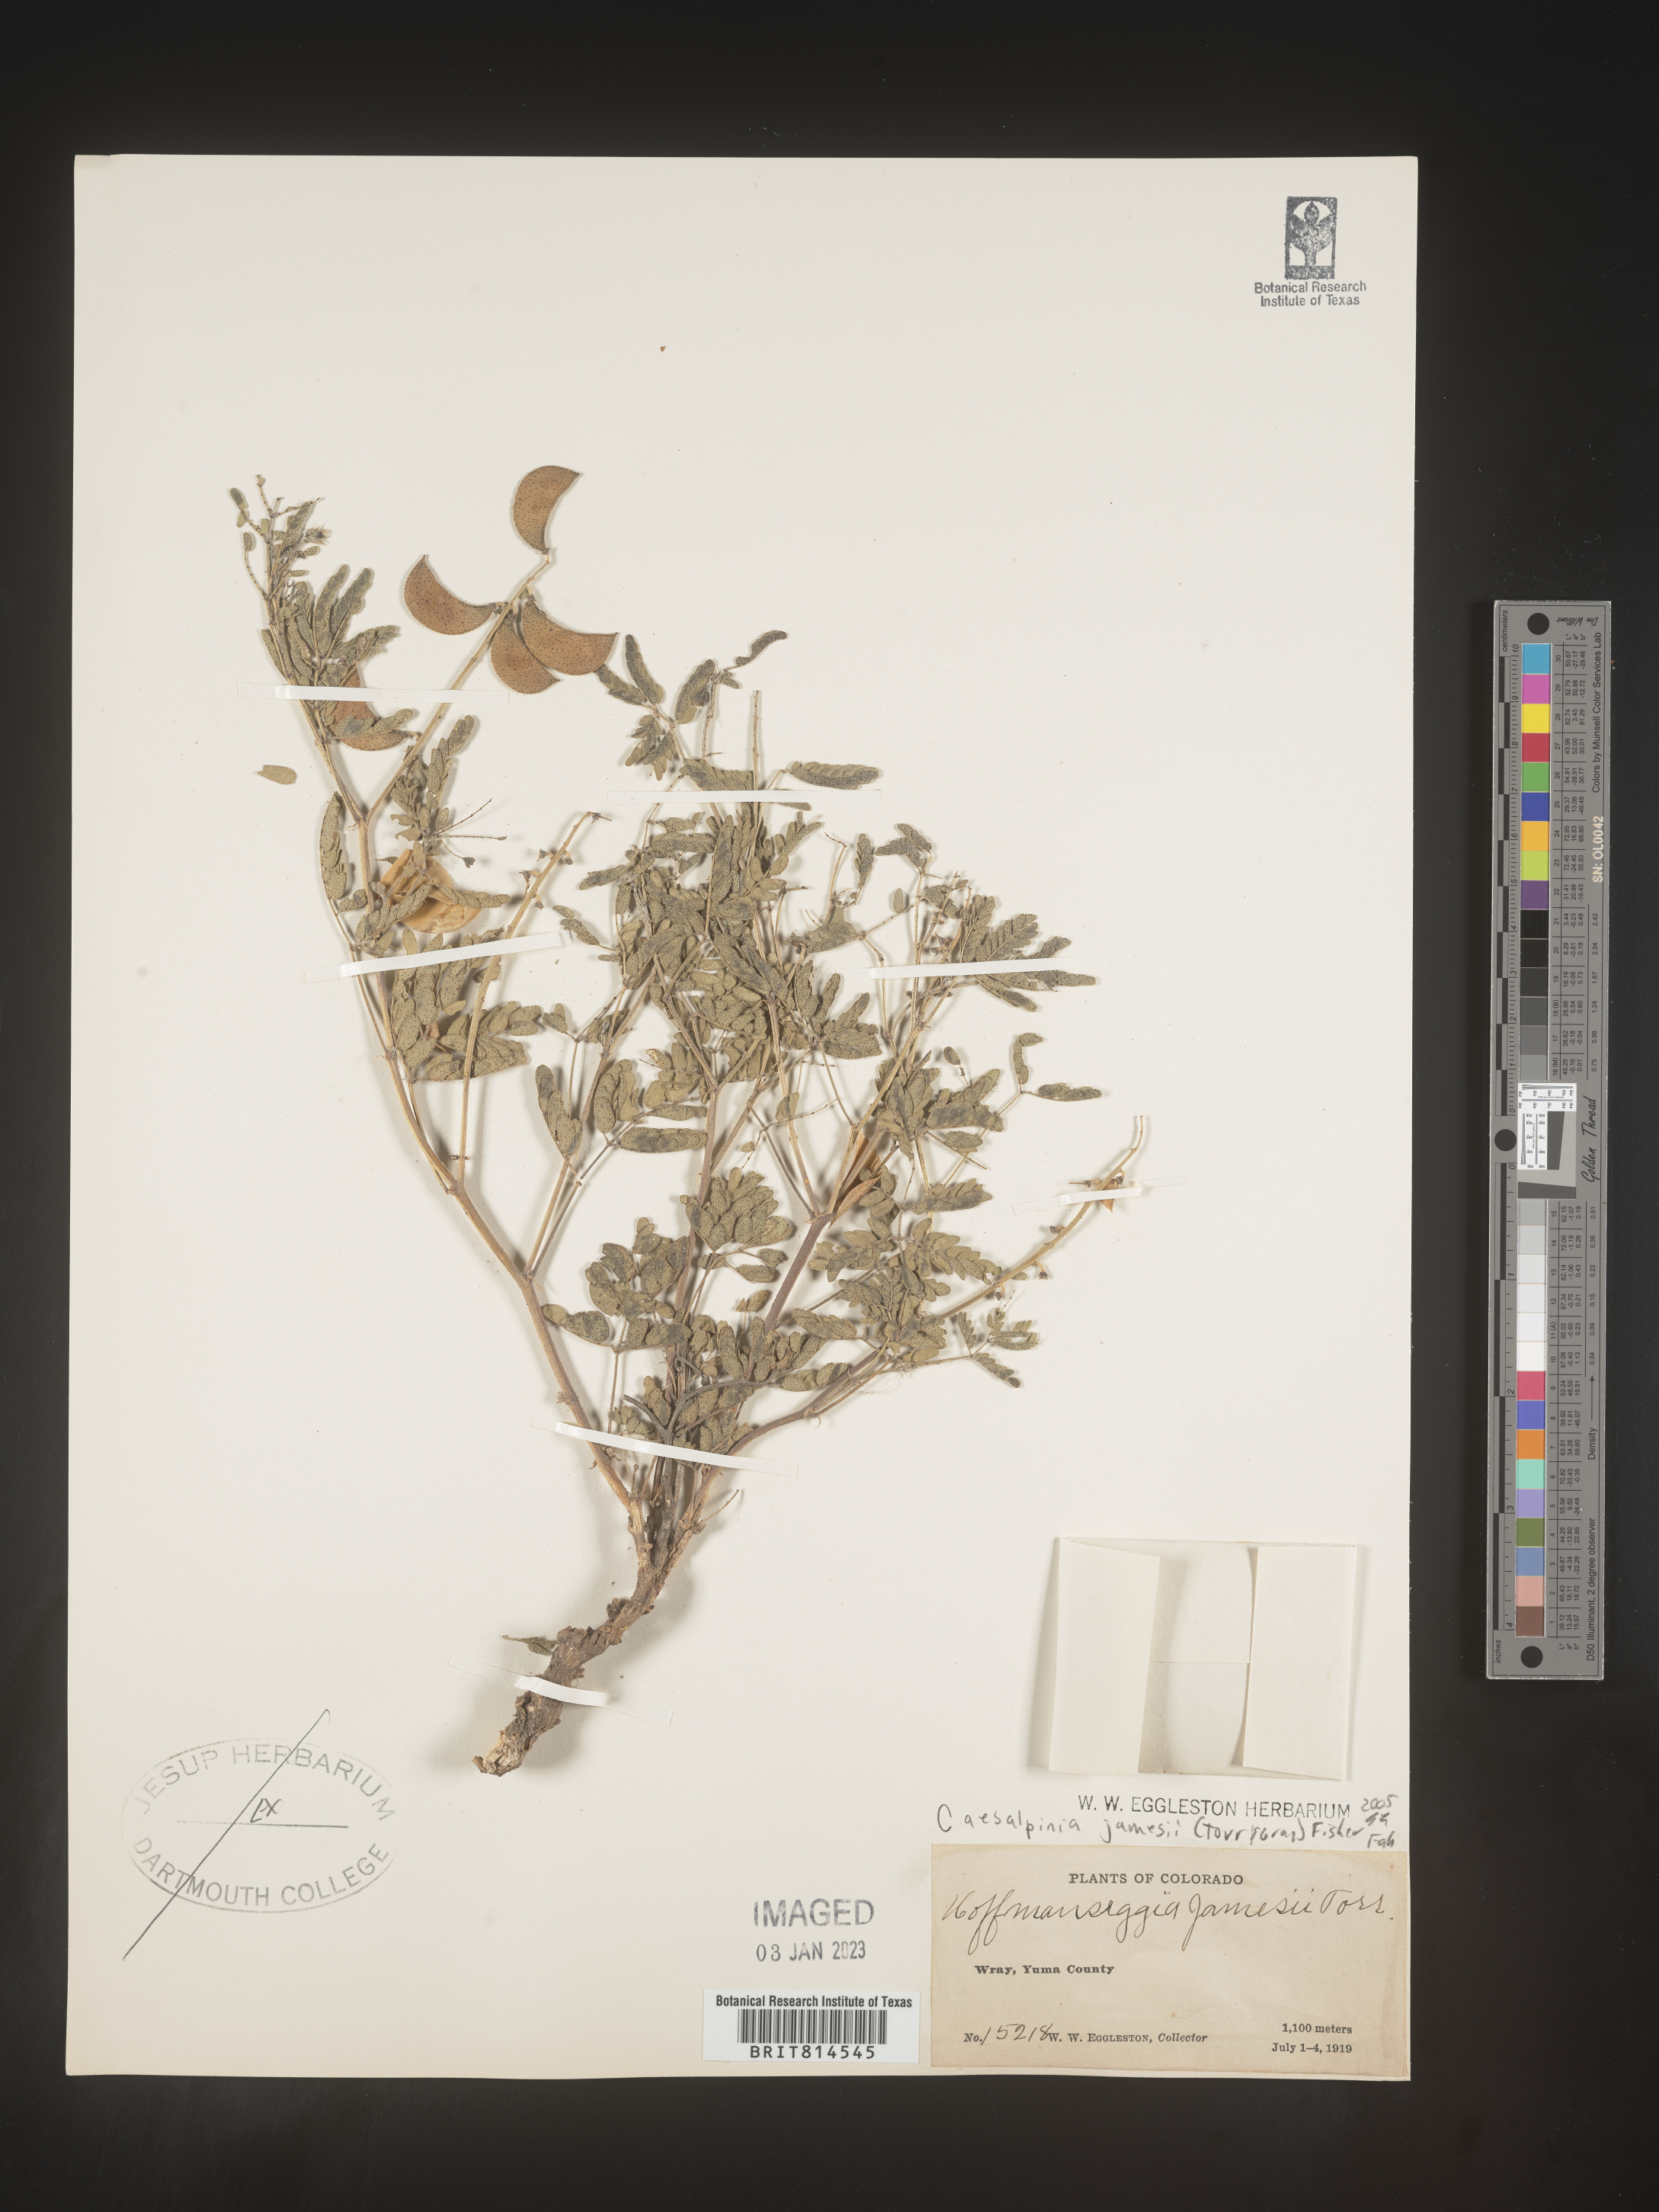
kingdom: Plantae
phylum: Tracheophyta
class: Magnoliopsida
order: Fabales
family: Fabaceae
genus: Caesalpinia
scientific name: Caesalpinia
